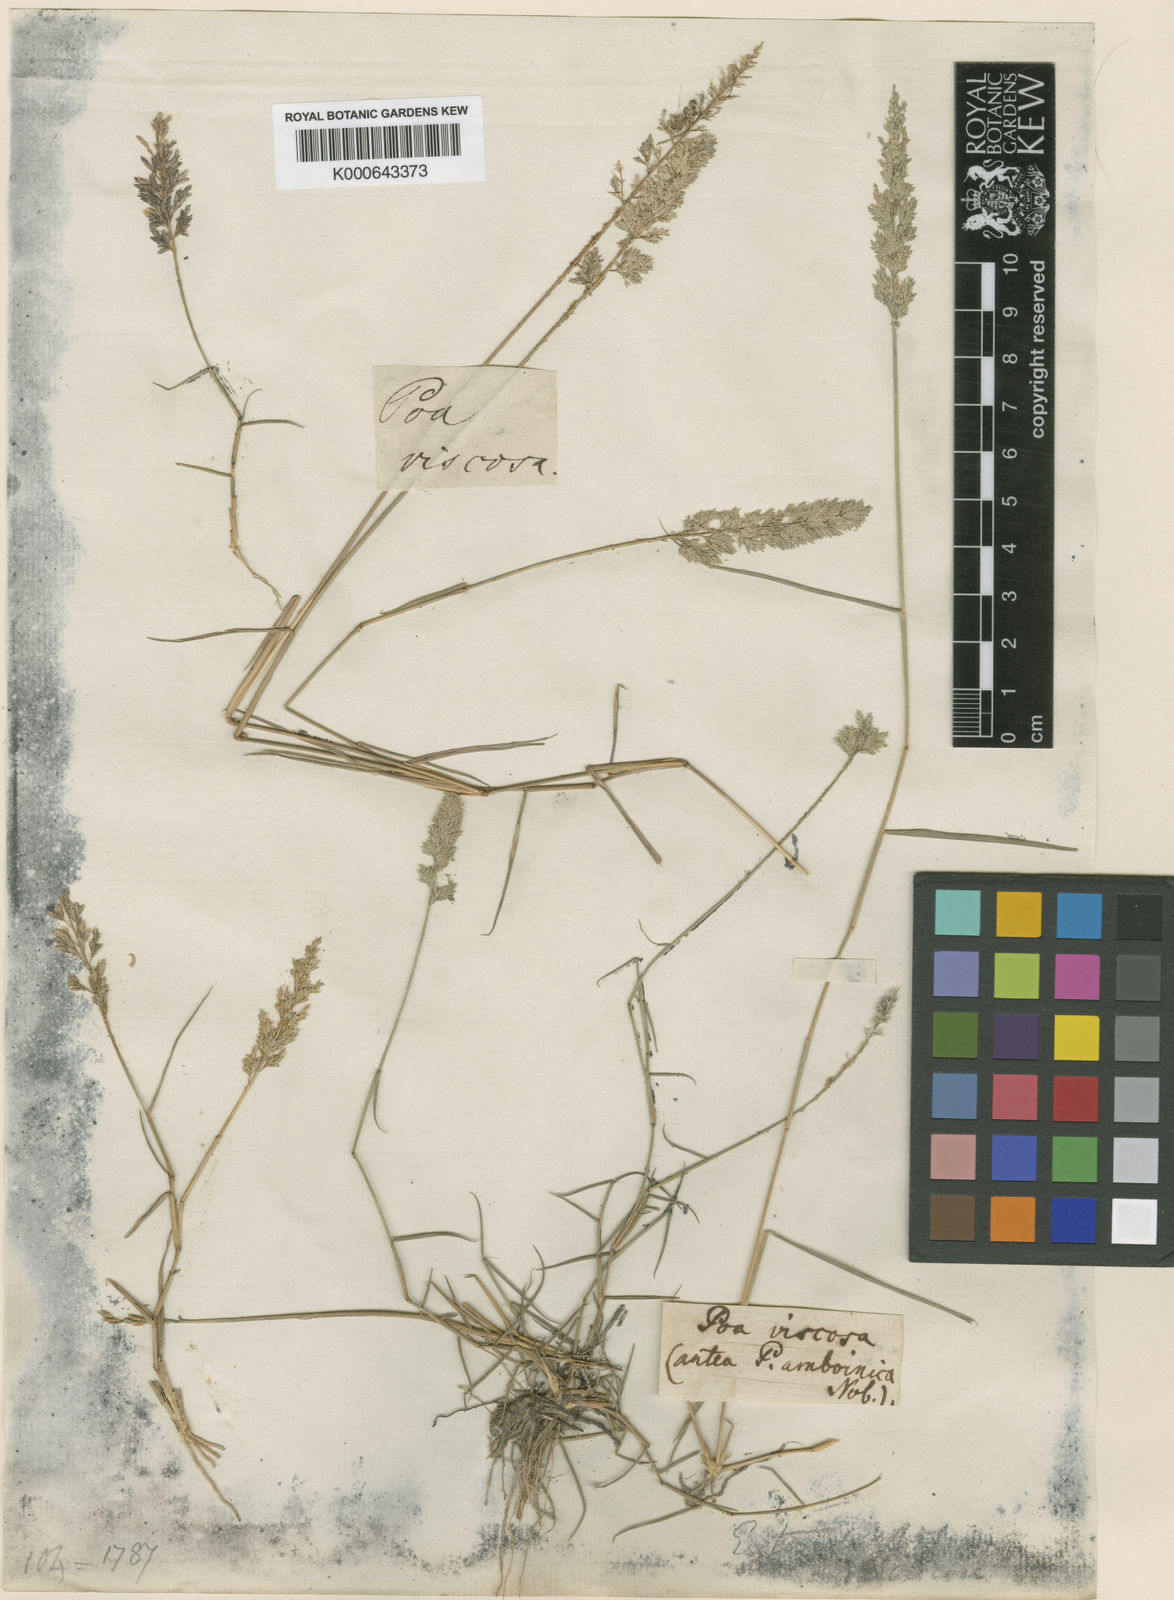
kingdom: Plantae
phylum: Tracheophyta
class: Liliopsida
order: Poales
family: Poaceae
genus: Eragrostis
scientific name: Eragrostis riparia
